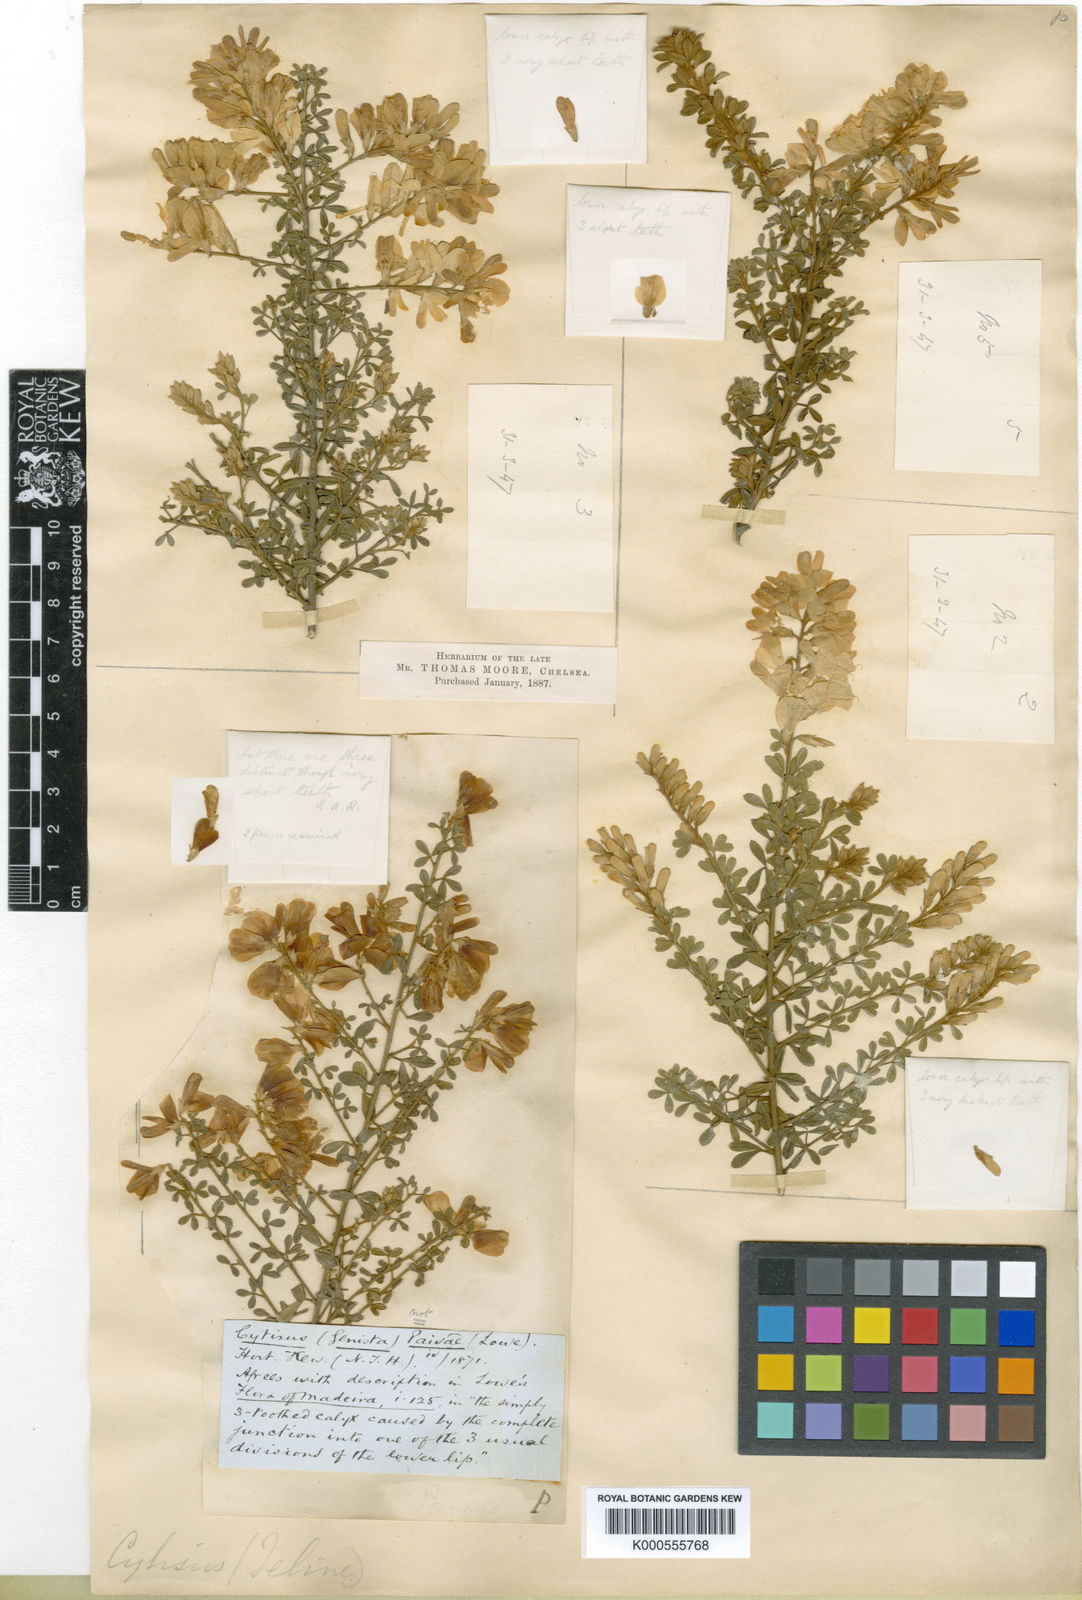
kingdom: Plantae
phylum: Tracheophyta
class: Magnoliopsida
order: Fabales
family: Fabaceae
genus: Genista
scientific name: Genista canariensis
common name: Canary broom
